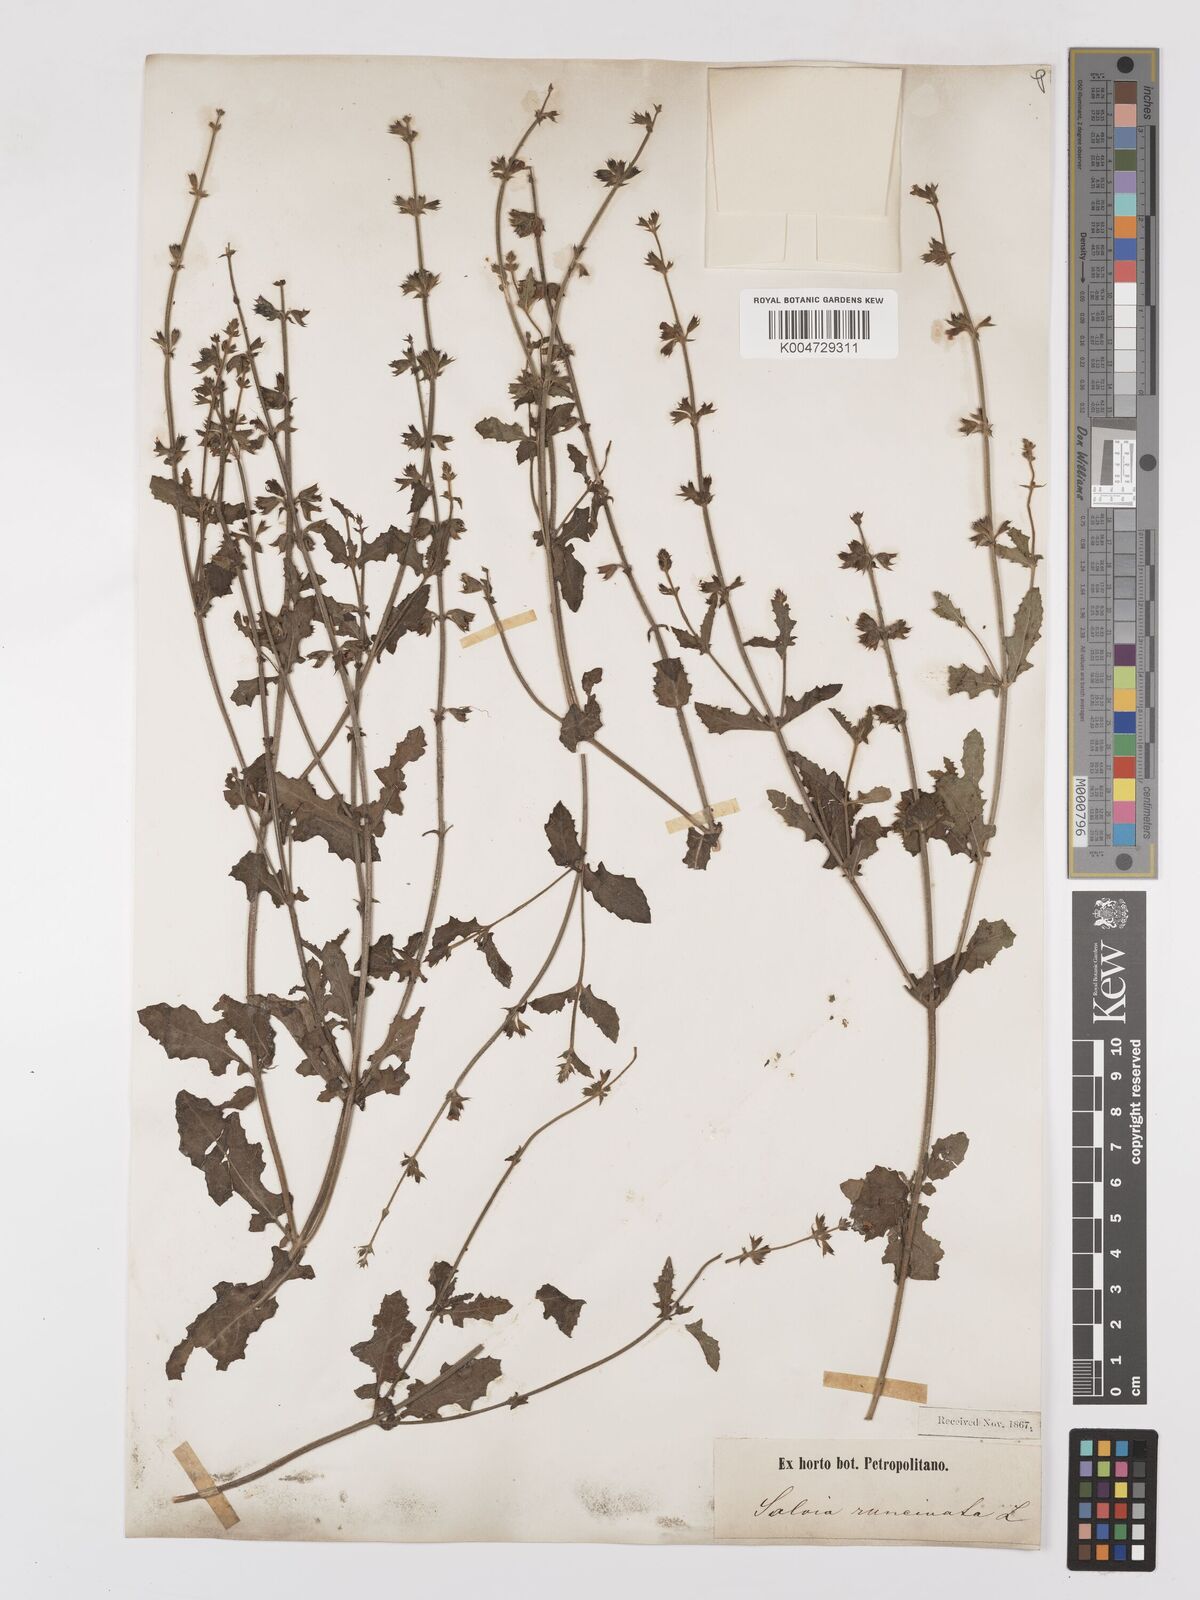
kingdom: Plantae
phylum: Tracheophyta
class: Magnoliopsida
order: Lamiales
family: Lamiaceae
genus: Salvia
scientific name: Salvia runcinata
